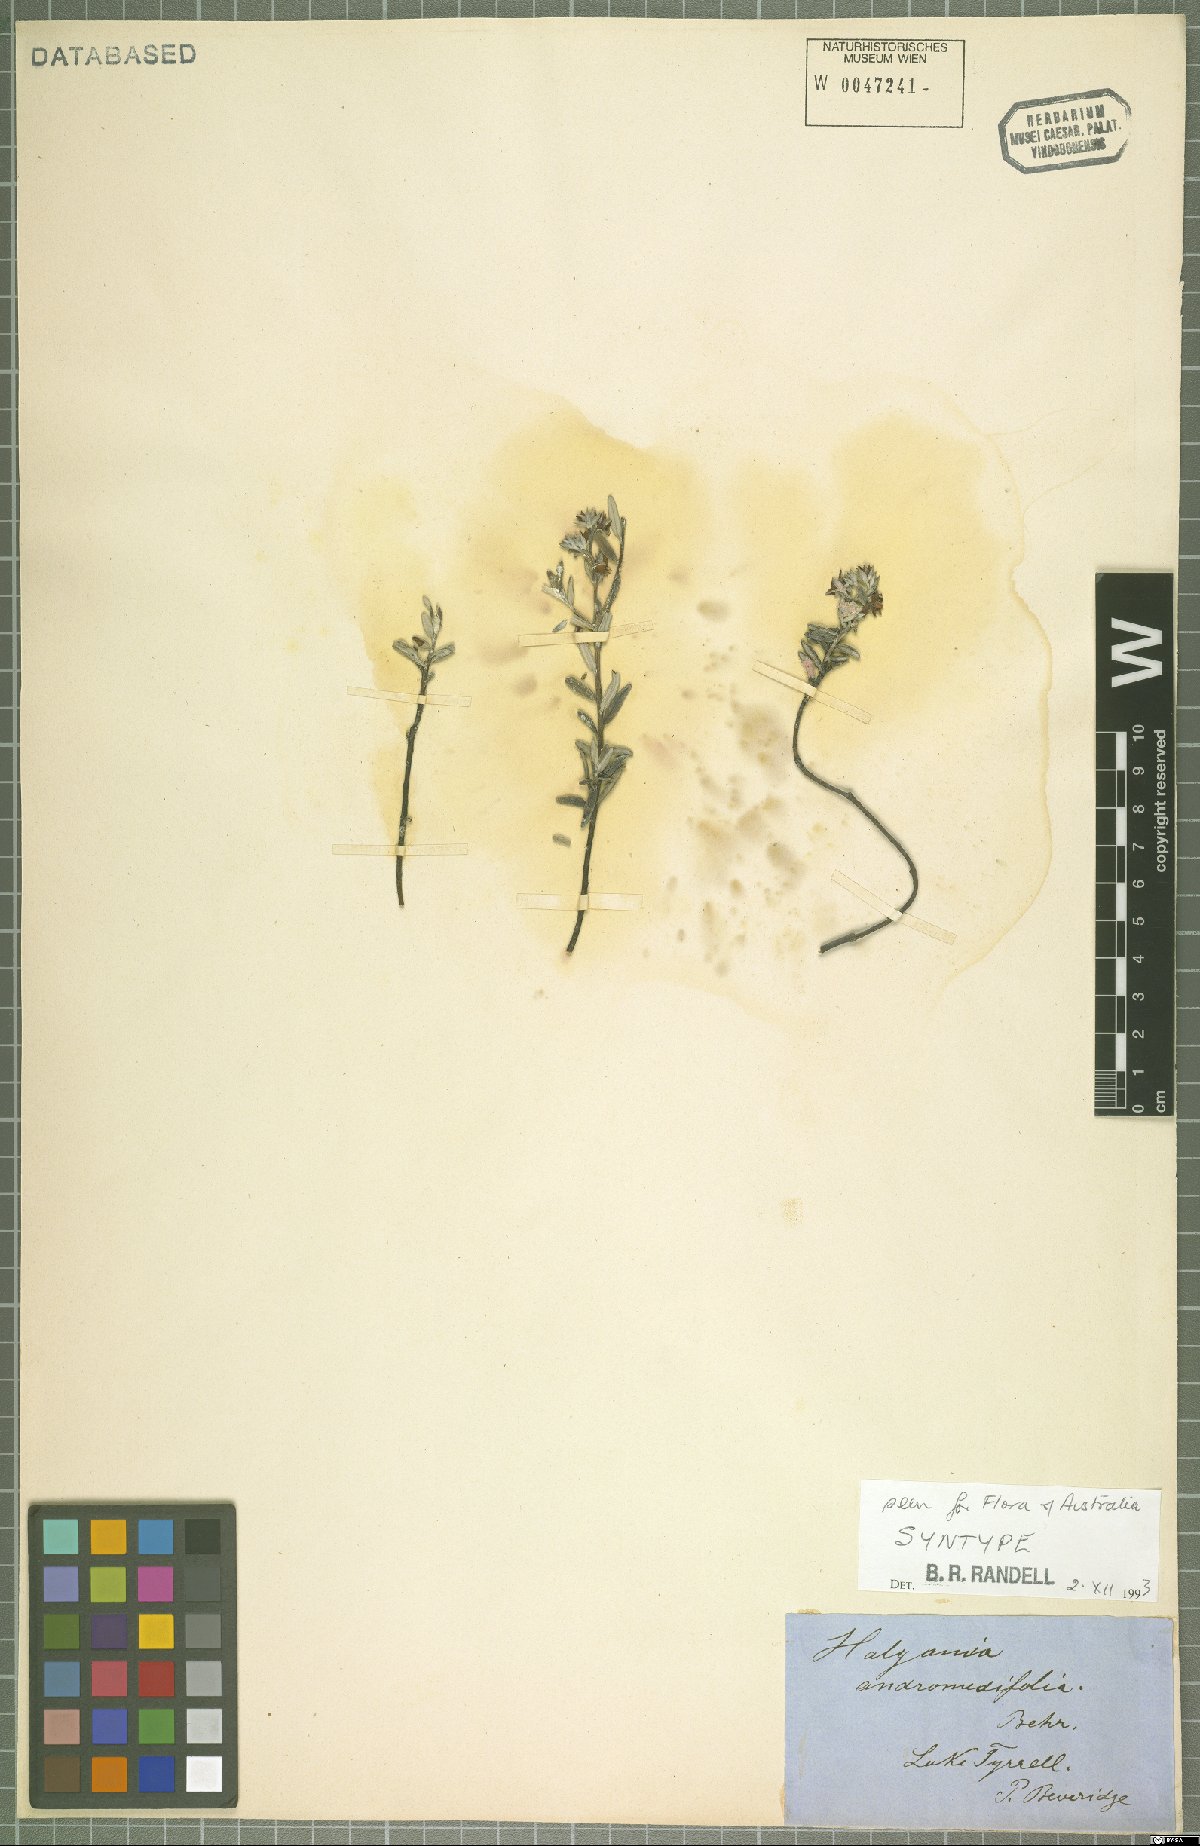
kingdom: Plantae
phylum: Tracheophyta
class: Magnoliopsida
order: Boraginales
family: Ehretiaceae
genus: Halgania
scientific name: Halgania andromedifolia
